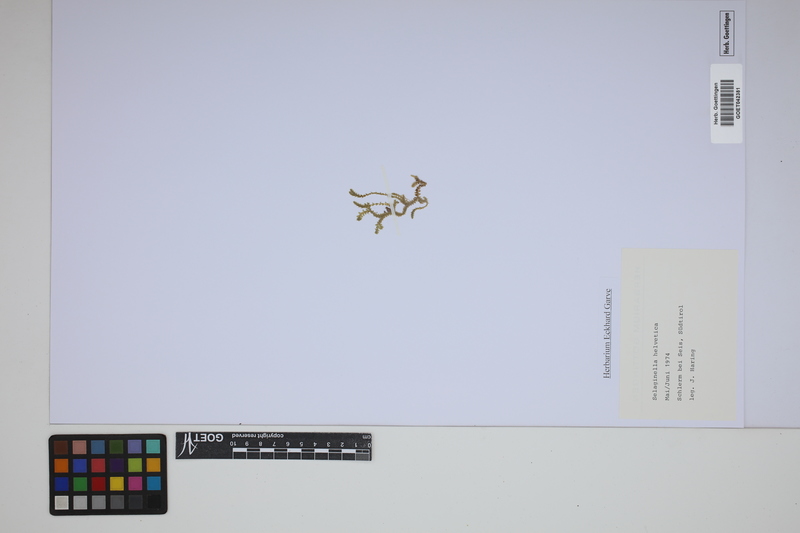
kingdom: Plantae
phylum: Tracheophyta
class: Lycopodiopsida
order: Selaginellales
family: Selaginellaceae
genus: Selaginella
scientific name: Selaginella helvetica
